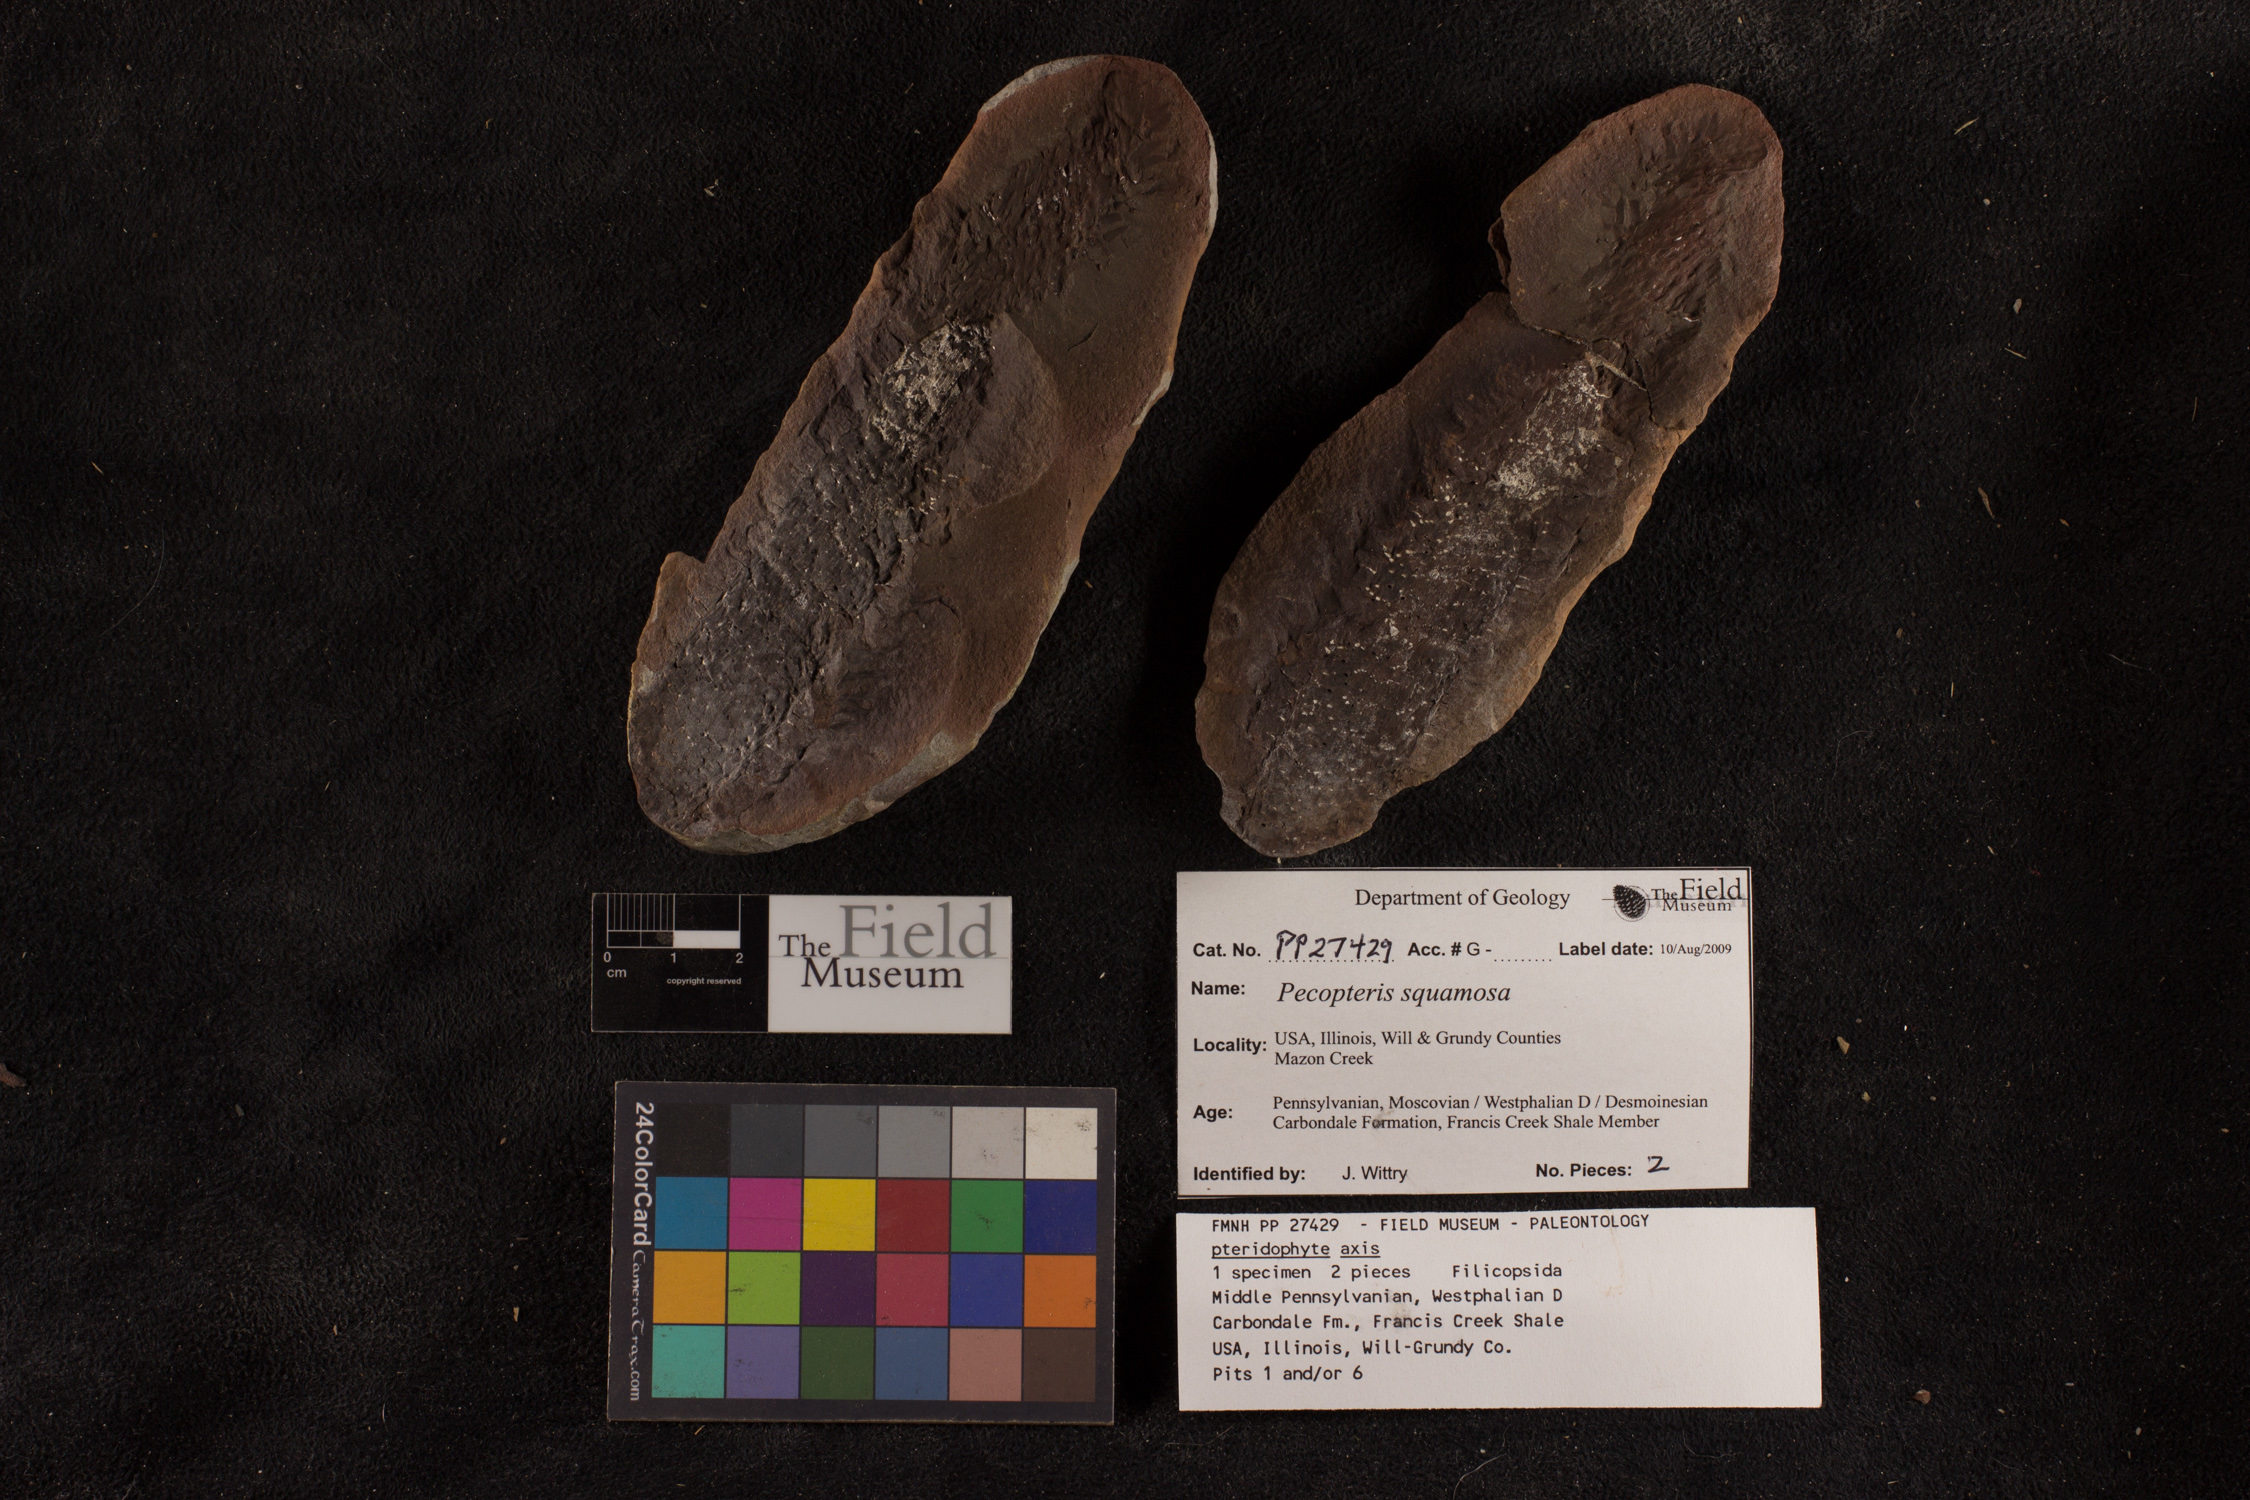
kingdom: Plantae
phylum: Tracheophyta
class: Polypodiopsida
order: Marattiales
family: Asterothecaceae
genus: Pecopteris
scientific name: Pecopteris
